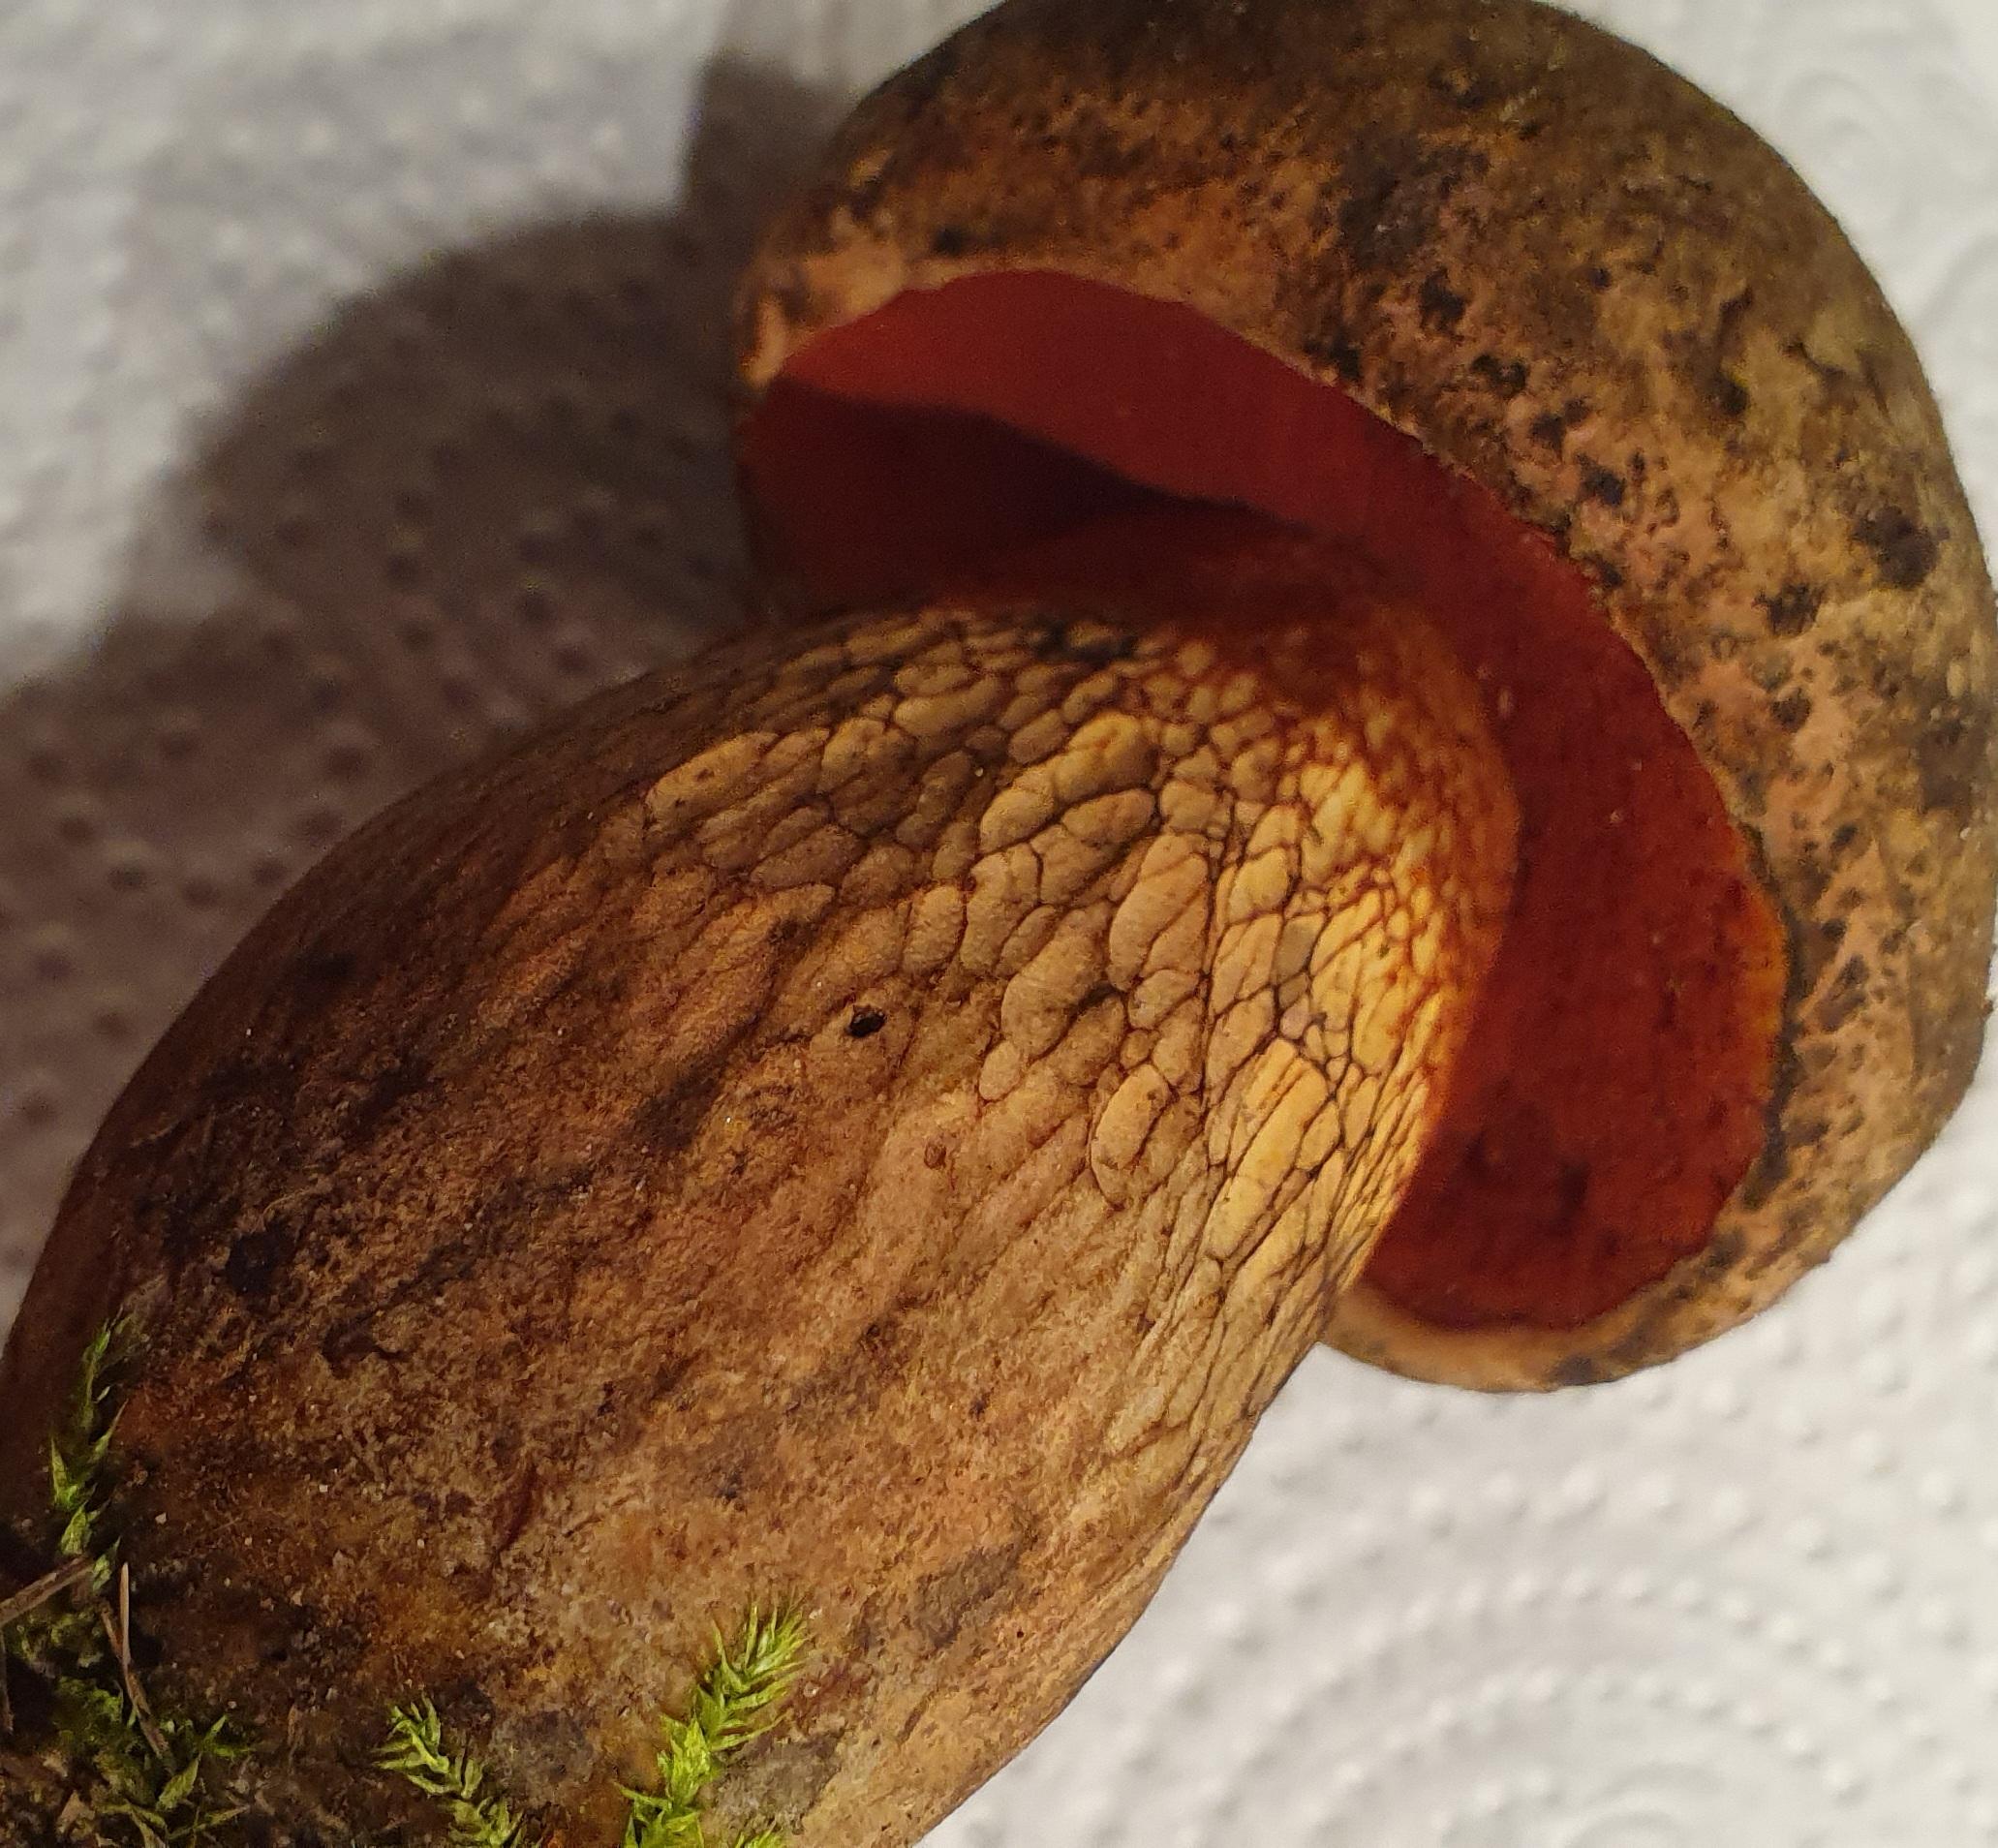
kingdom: Fungi
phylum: Basidiomycota
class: Agaricomycetes
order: Boletales
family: Boletaceae
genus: Suillellus
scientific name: Suillellus luridus
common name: netstokket indigorørhat
